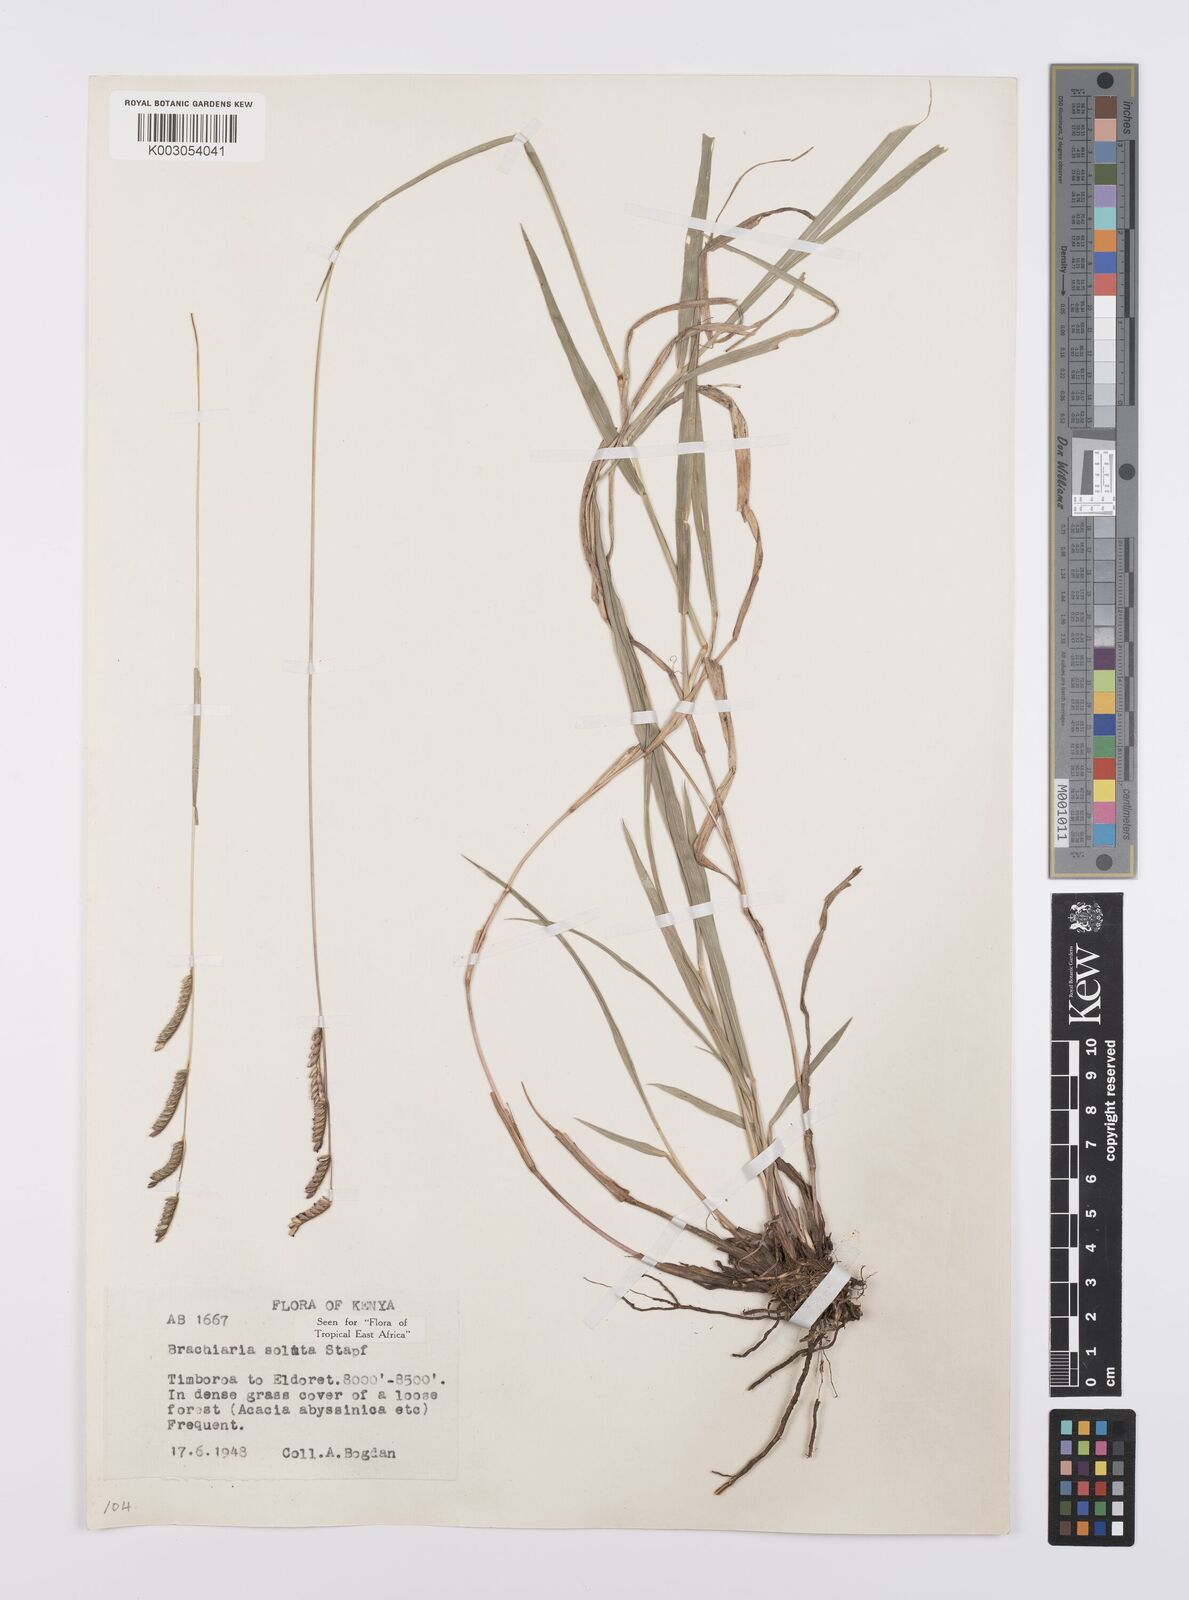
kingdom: Plantae
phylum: Tracheophyta
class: Liliopsida
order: Poales
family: Poaceae
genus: Urochloa
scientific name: Urochloa jubata
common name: Buffalograss
